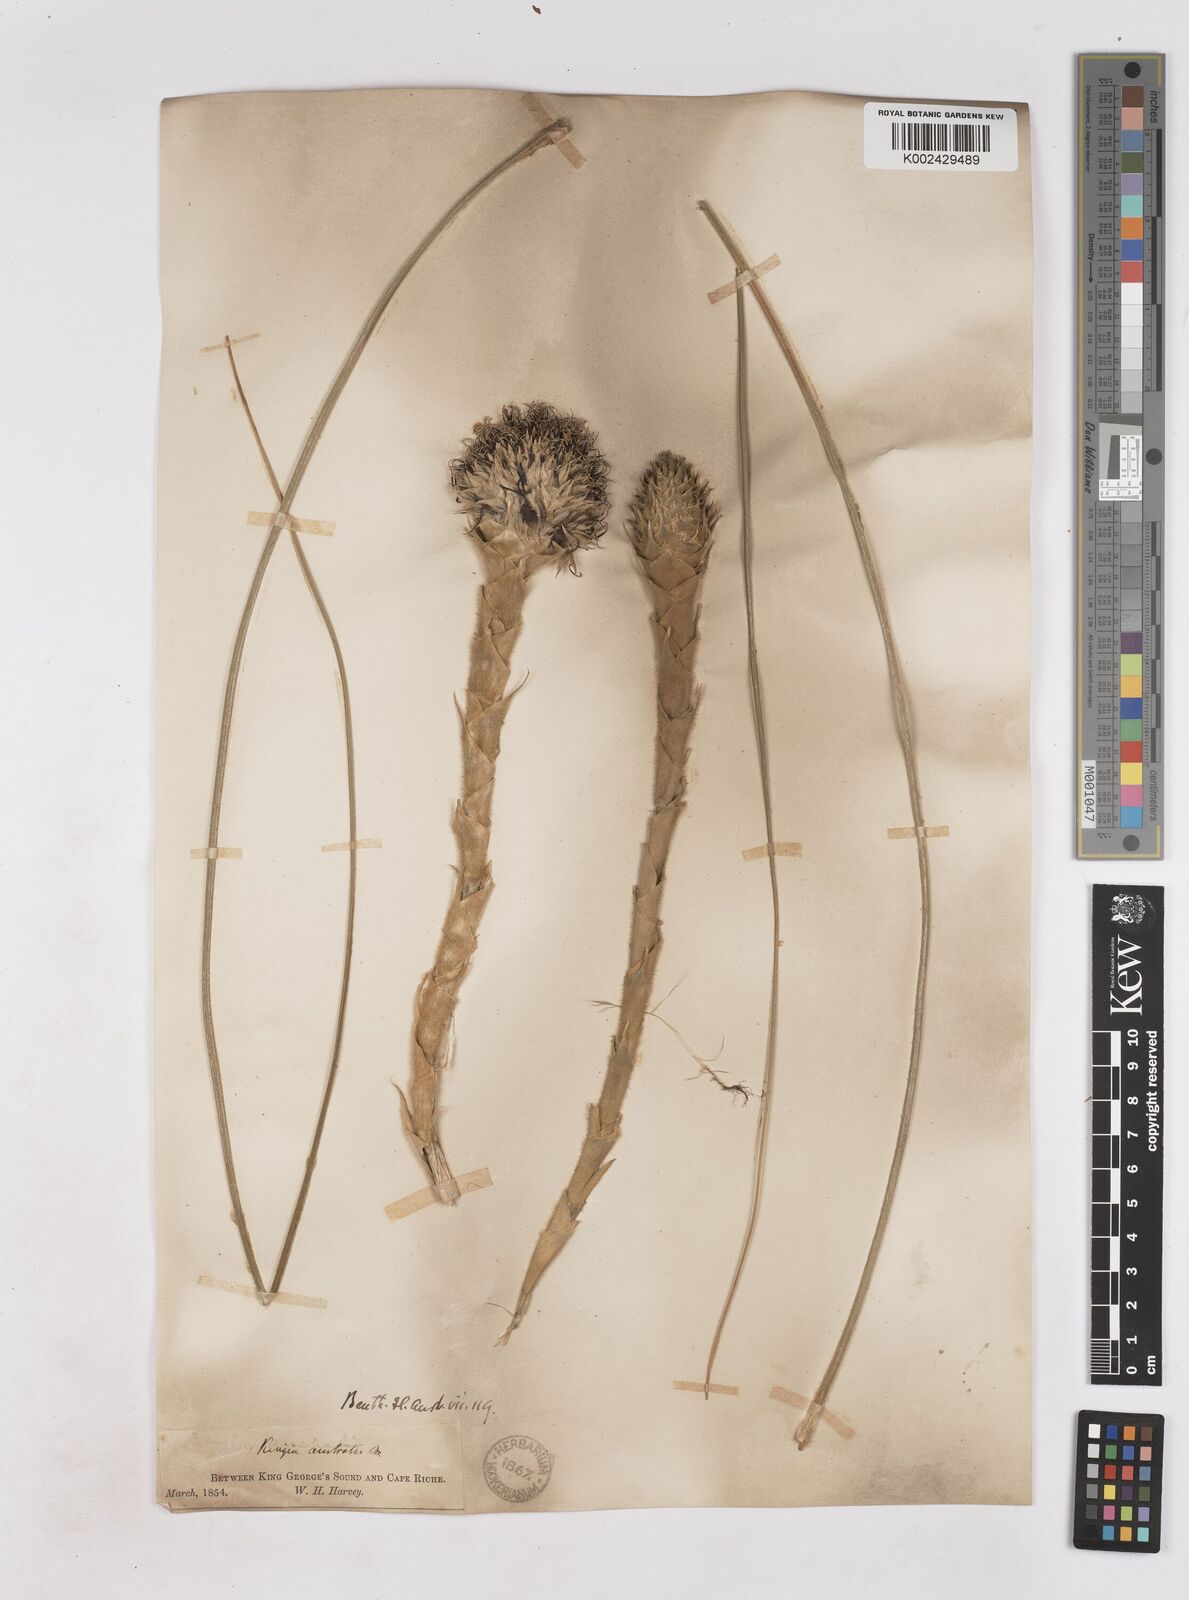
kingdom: Plantae
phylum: Tracheophyta
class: Liliopsida
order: Arecales
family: Dasypogonaceae
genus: Kingia
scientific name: Kingia australis
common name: Black gin
